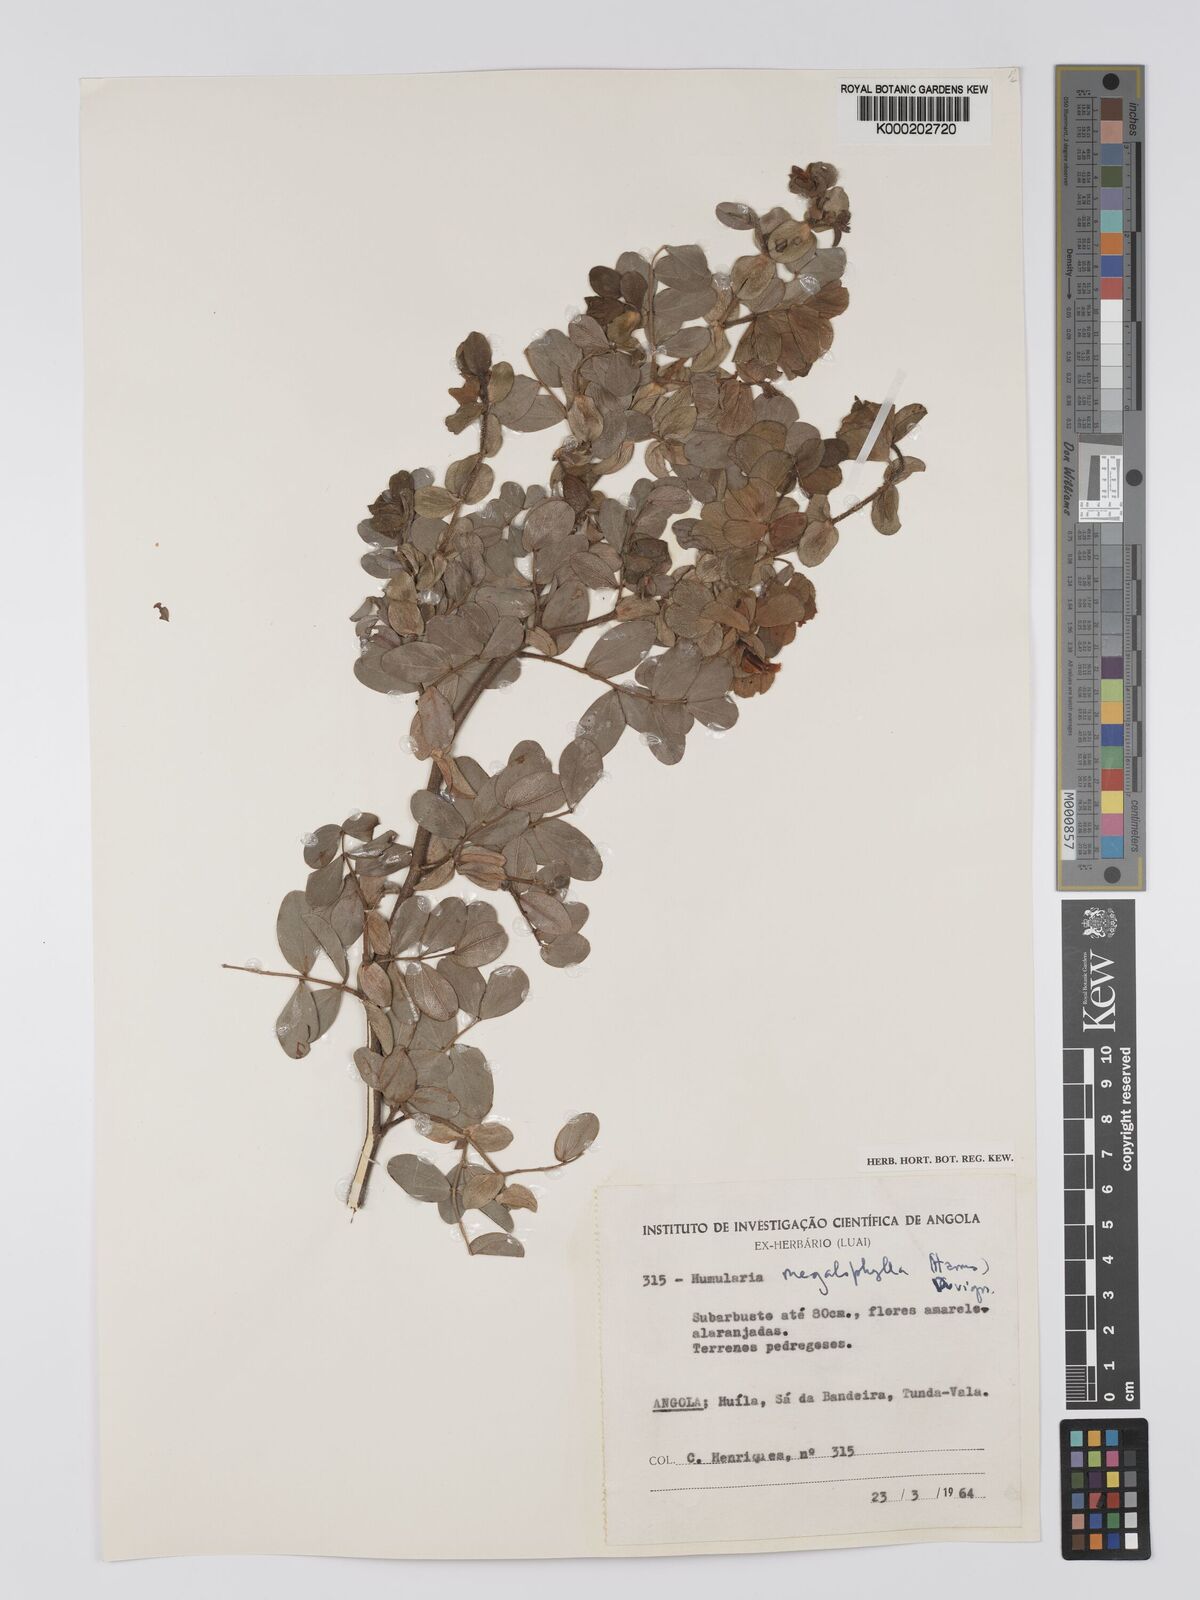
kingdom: Plantae
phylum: Tracheophyta
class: Magnoliopsida
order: Fabales
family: Fabaceae
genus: Humularia
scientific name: Humularia welwitschii
